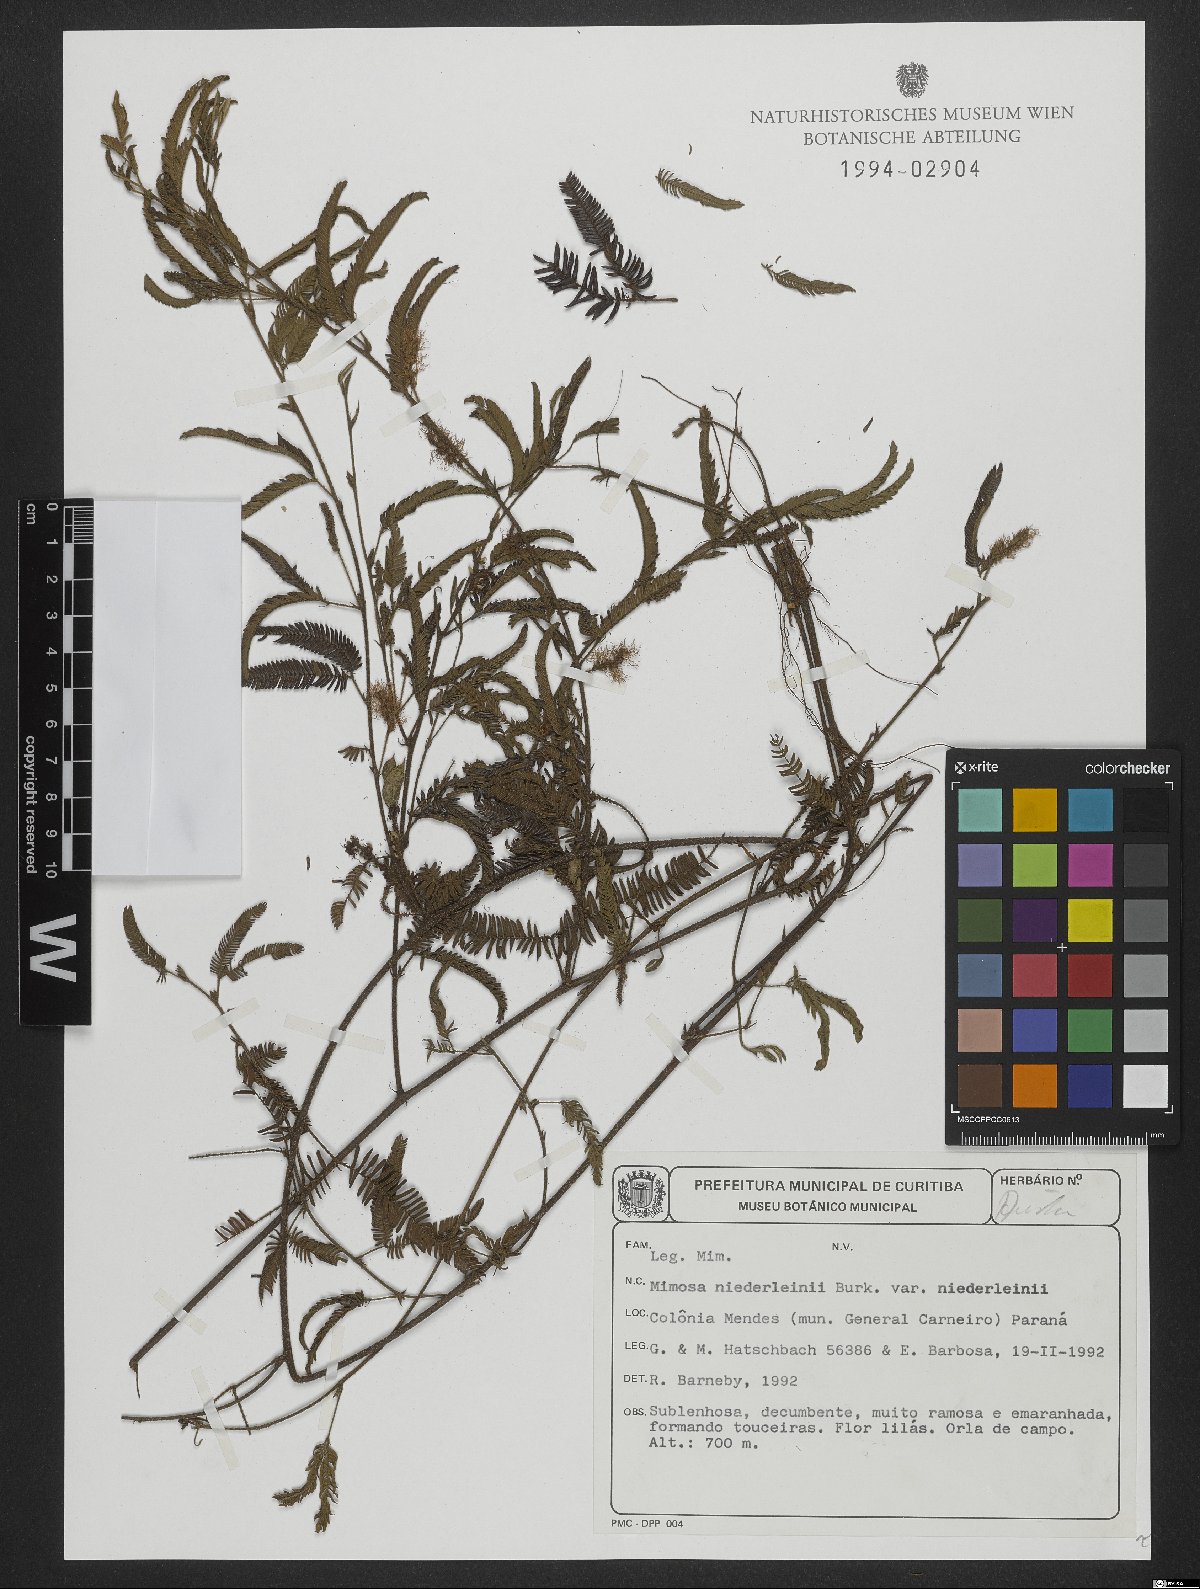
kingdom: Plantae
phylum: Tracheophyta
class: Magnoliopsida
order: Fabales
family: Fabaceae
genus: Mimosa
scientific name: Mimosa niederleinii
